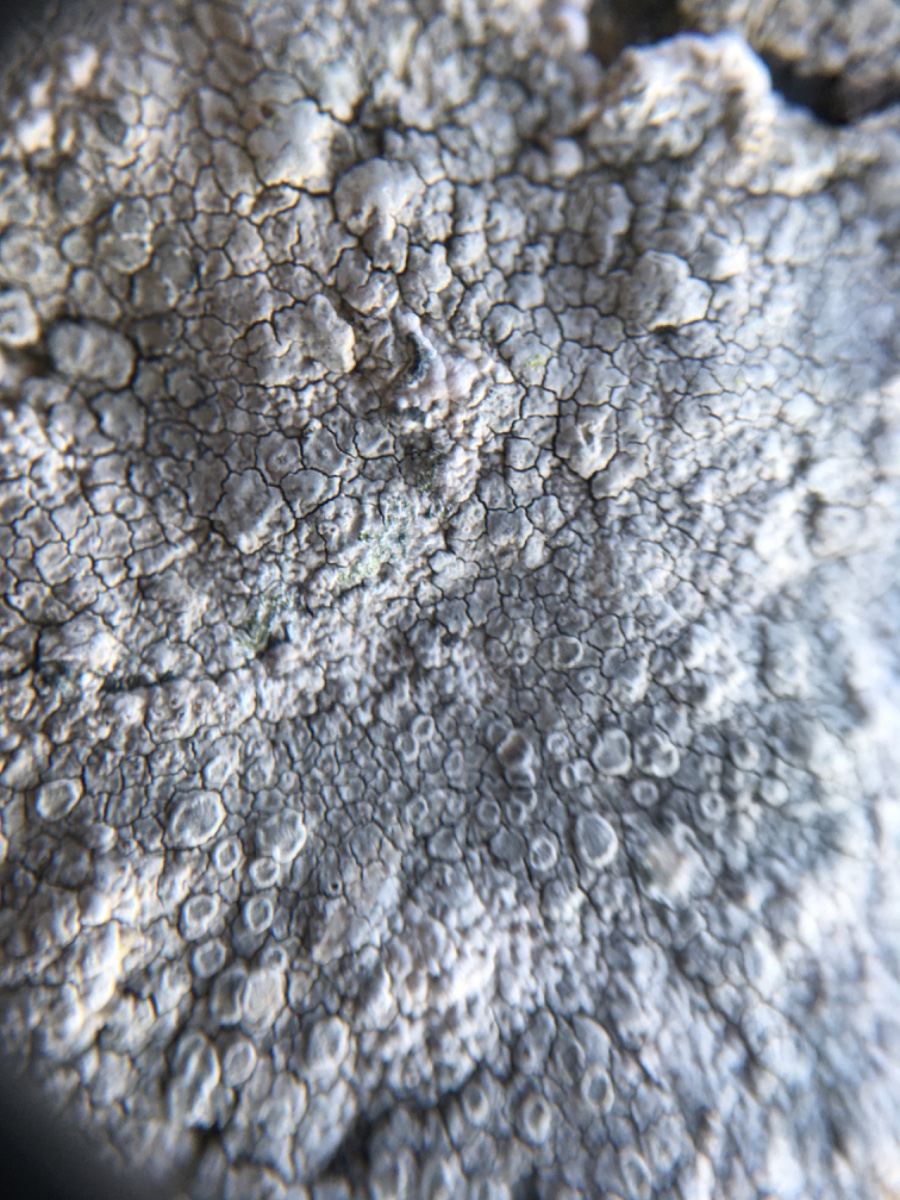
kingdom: Fungi
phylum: Ascomycota
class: Lecanoromycetes
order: Lecanorales
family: Lecanoraceae
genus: Glaucomaria
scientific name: Glaucomaria rupicola
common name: stengærde-kantskivelav
